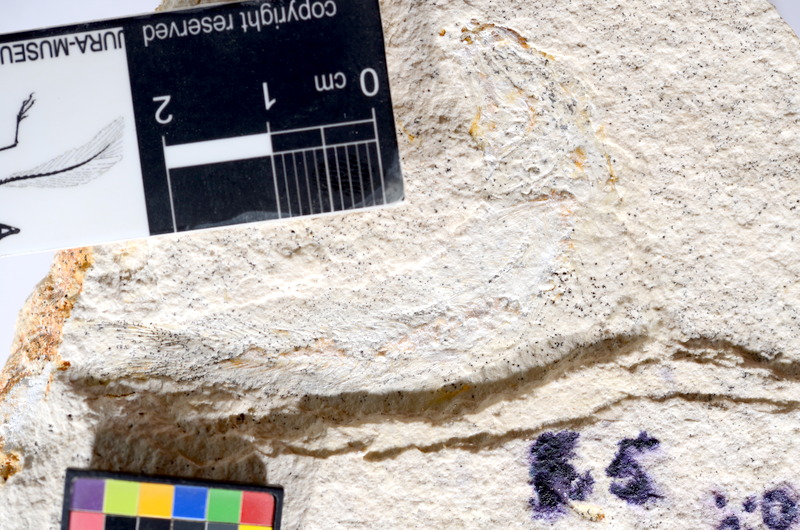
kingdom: Animalia
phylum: Chordata
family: Ascalaboidae
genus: Tharsis
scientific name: Tharsis dubius
